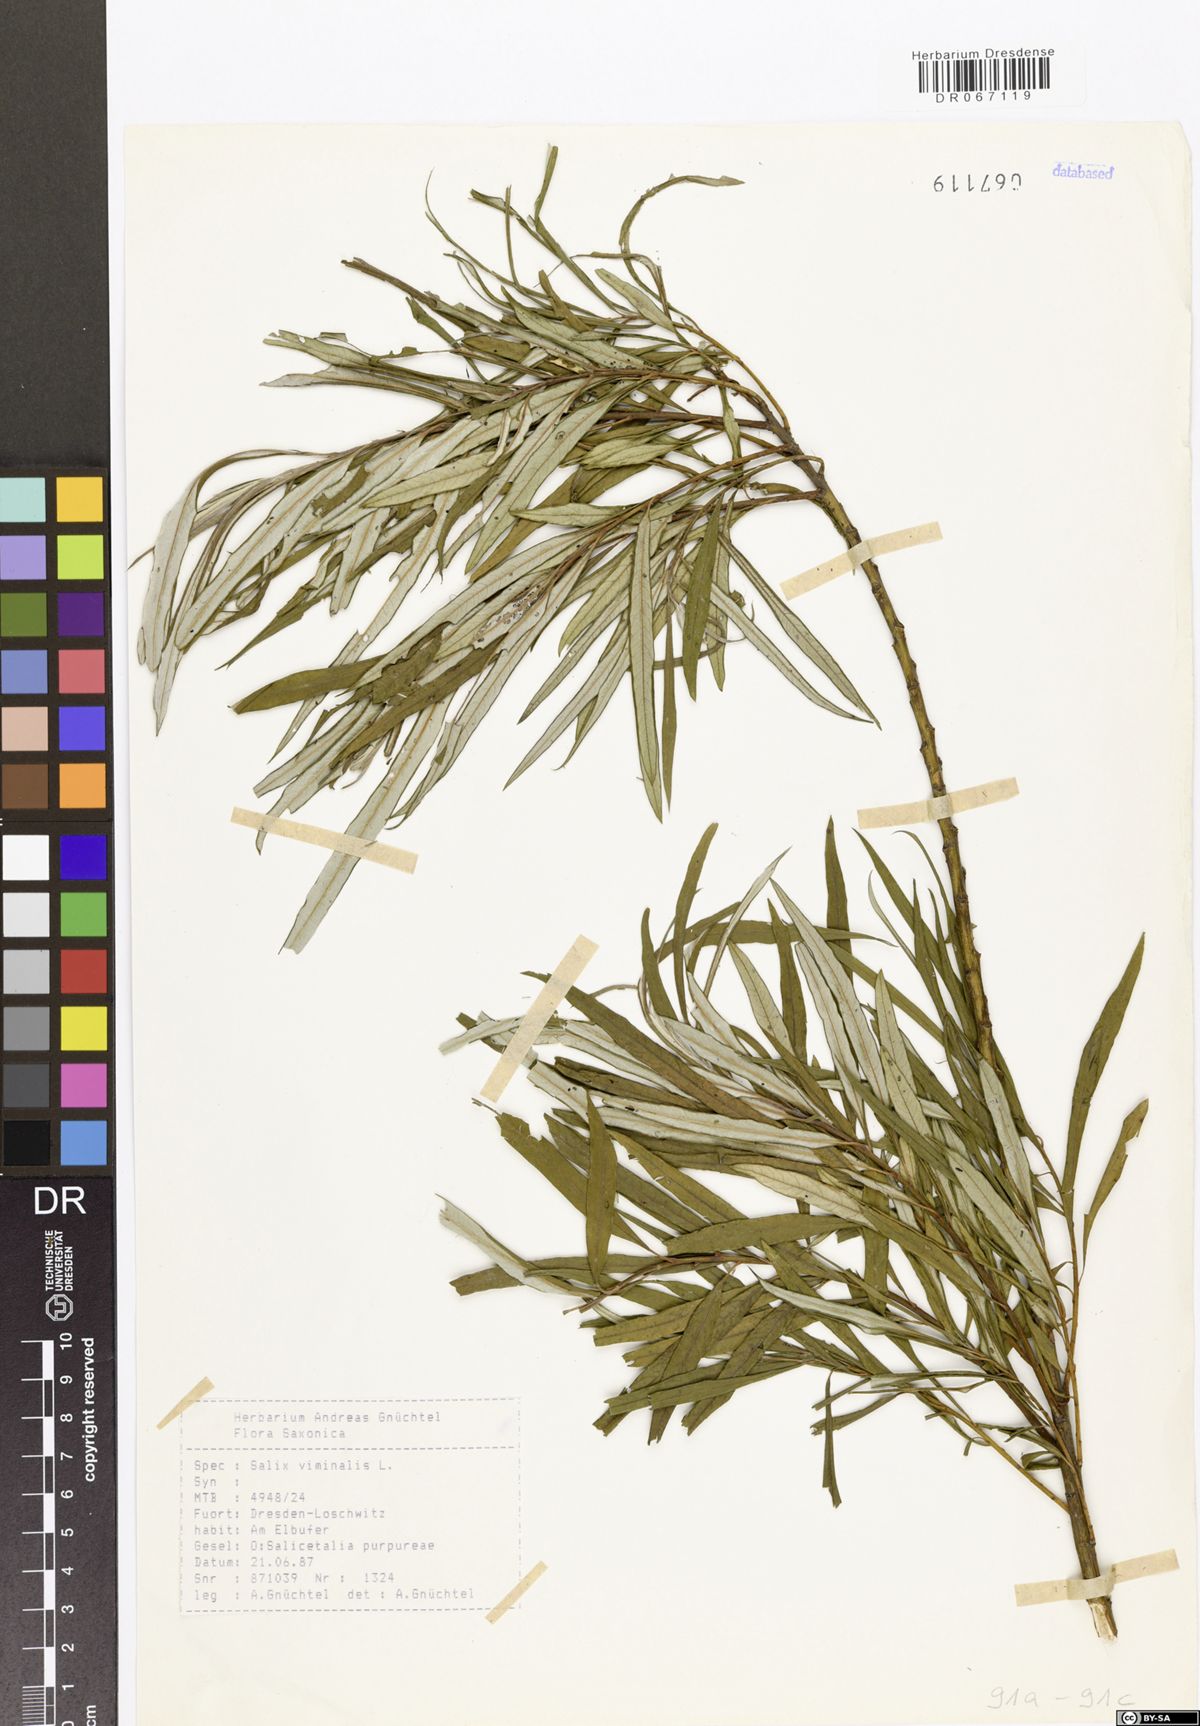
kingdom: Plantae
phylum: Tracheophyta
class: Magnoliopsida
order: Malpighiales
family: Salicaceae
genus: Salix
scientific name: Salix viminalis
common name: Osier
